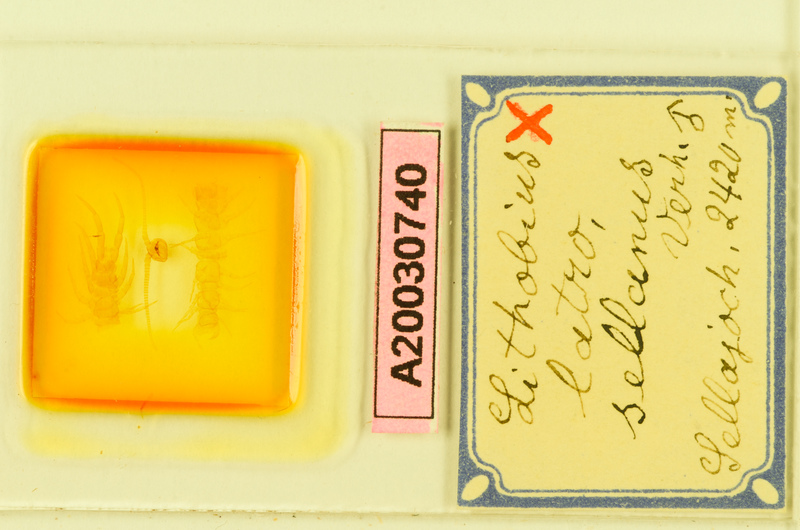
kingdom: Animalia
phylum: Arthropoda
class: Chilopoda
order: Lithobiomorpha
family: Lithobiidae
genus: Lithobius
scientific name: Lithobius mutabilis
